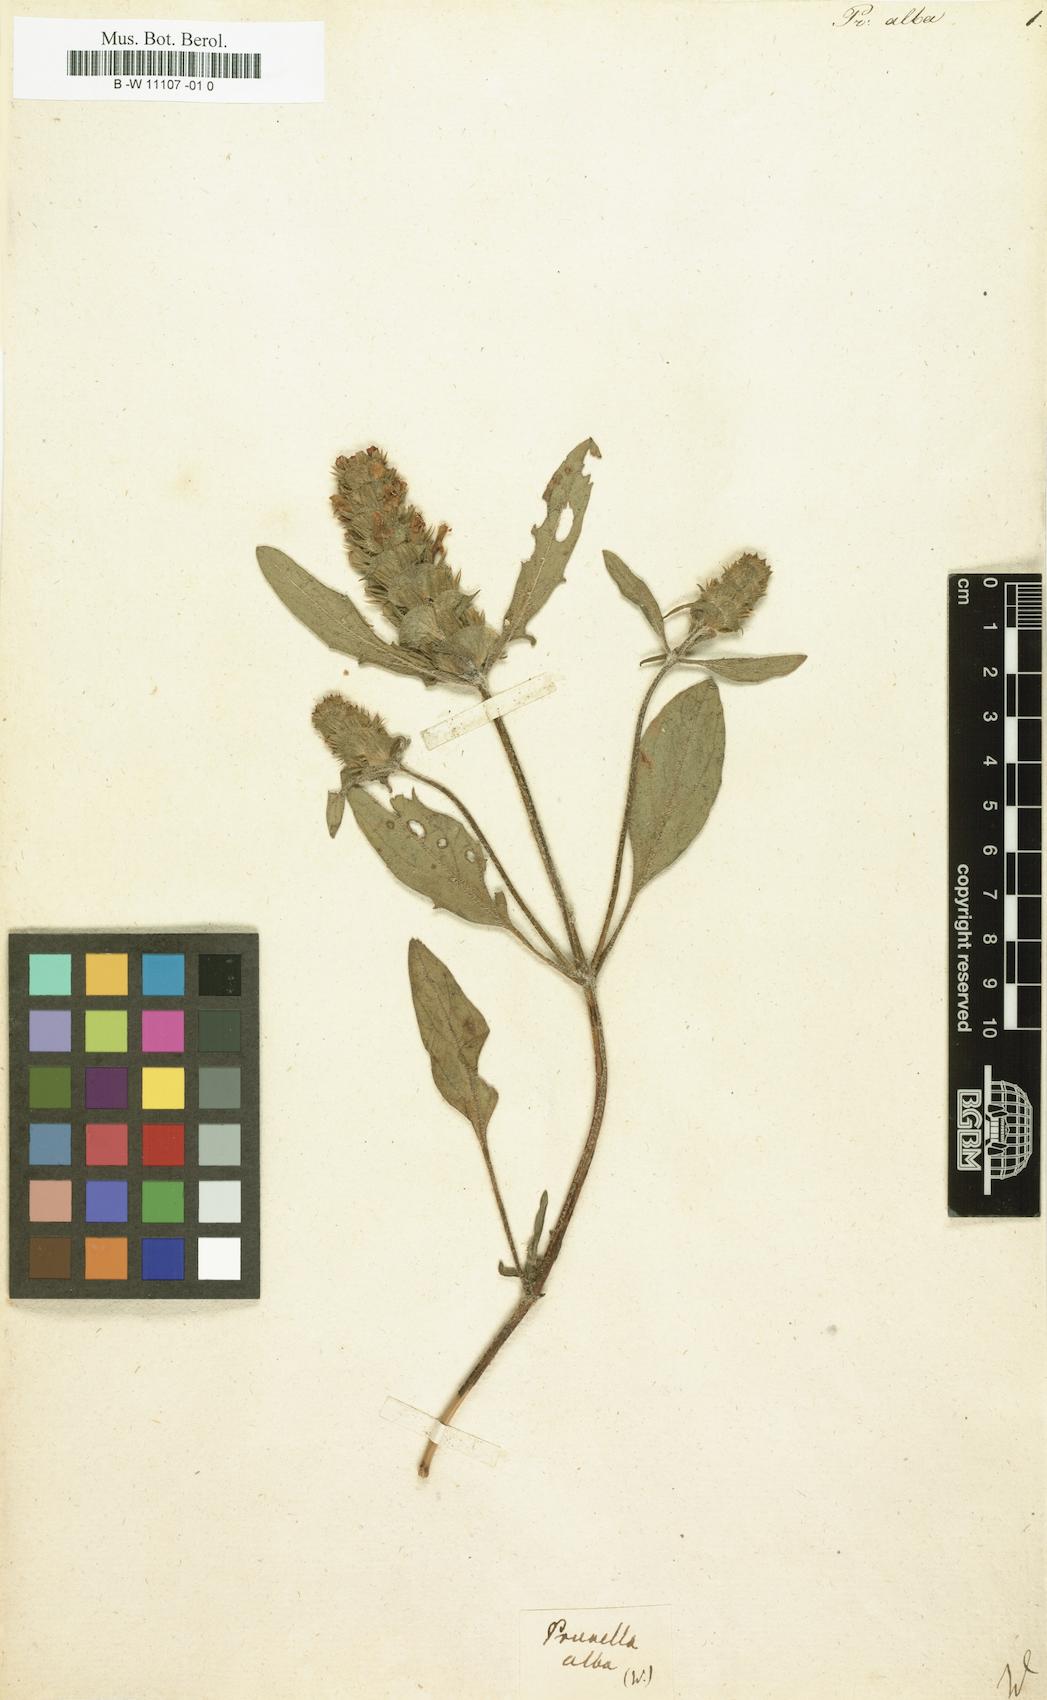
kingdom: Plantae
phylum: Tracheophyta
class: Magnoliopsida
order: Lamiales
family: Lamiaceae
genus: Prunella
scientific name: Prunella laciniata
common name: Cut-leaved selfheal
